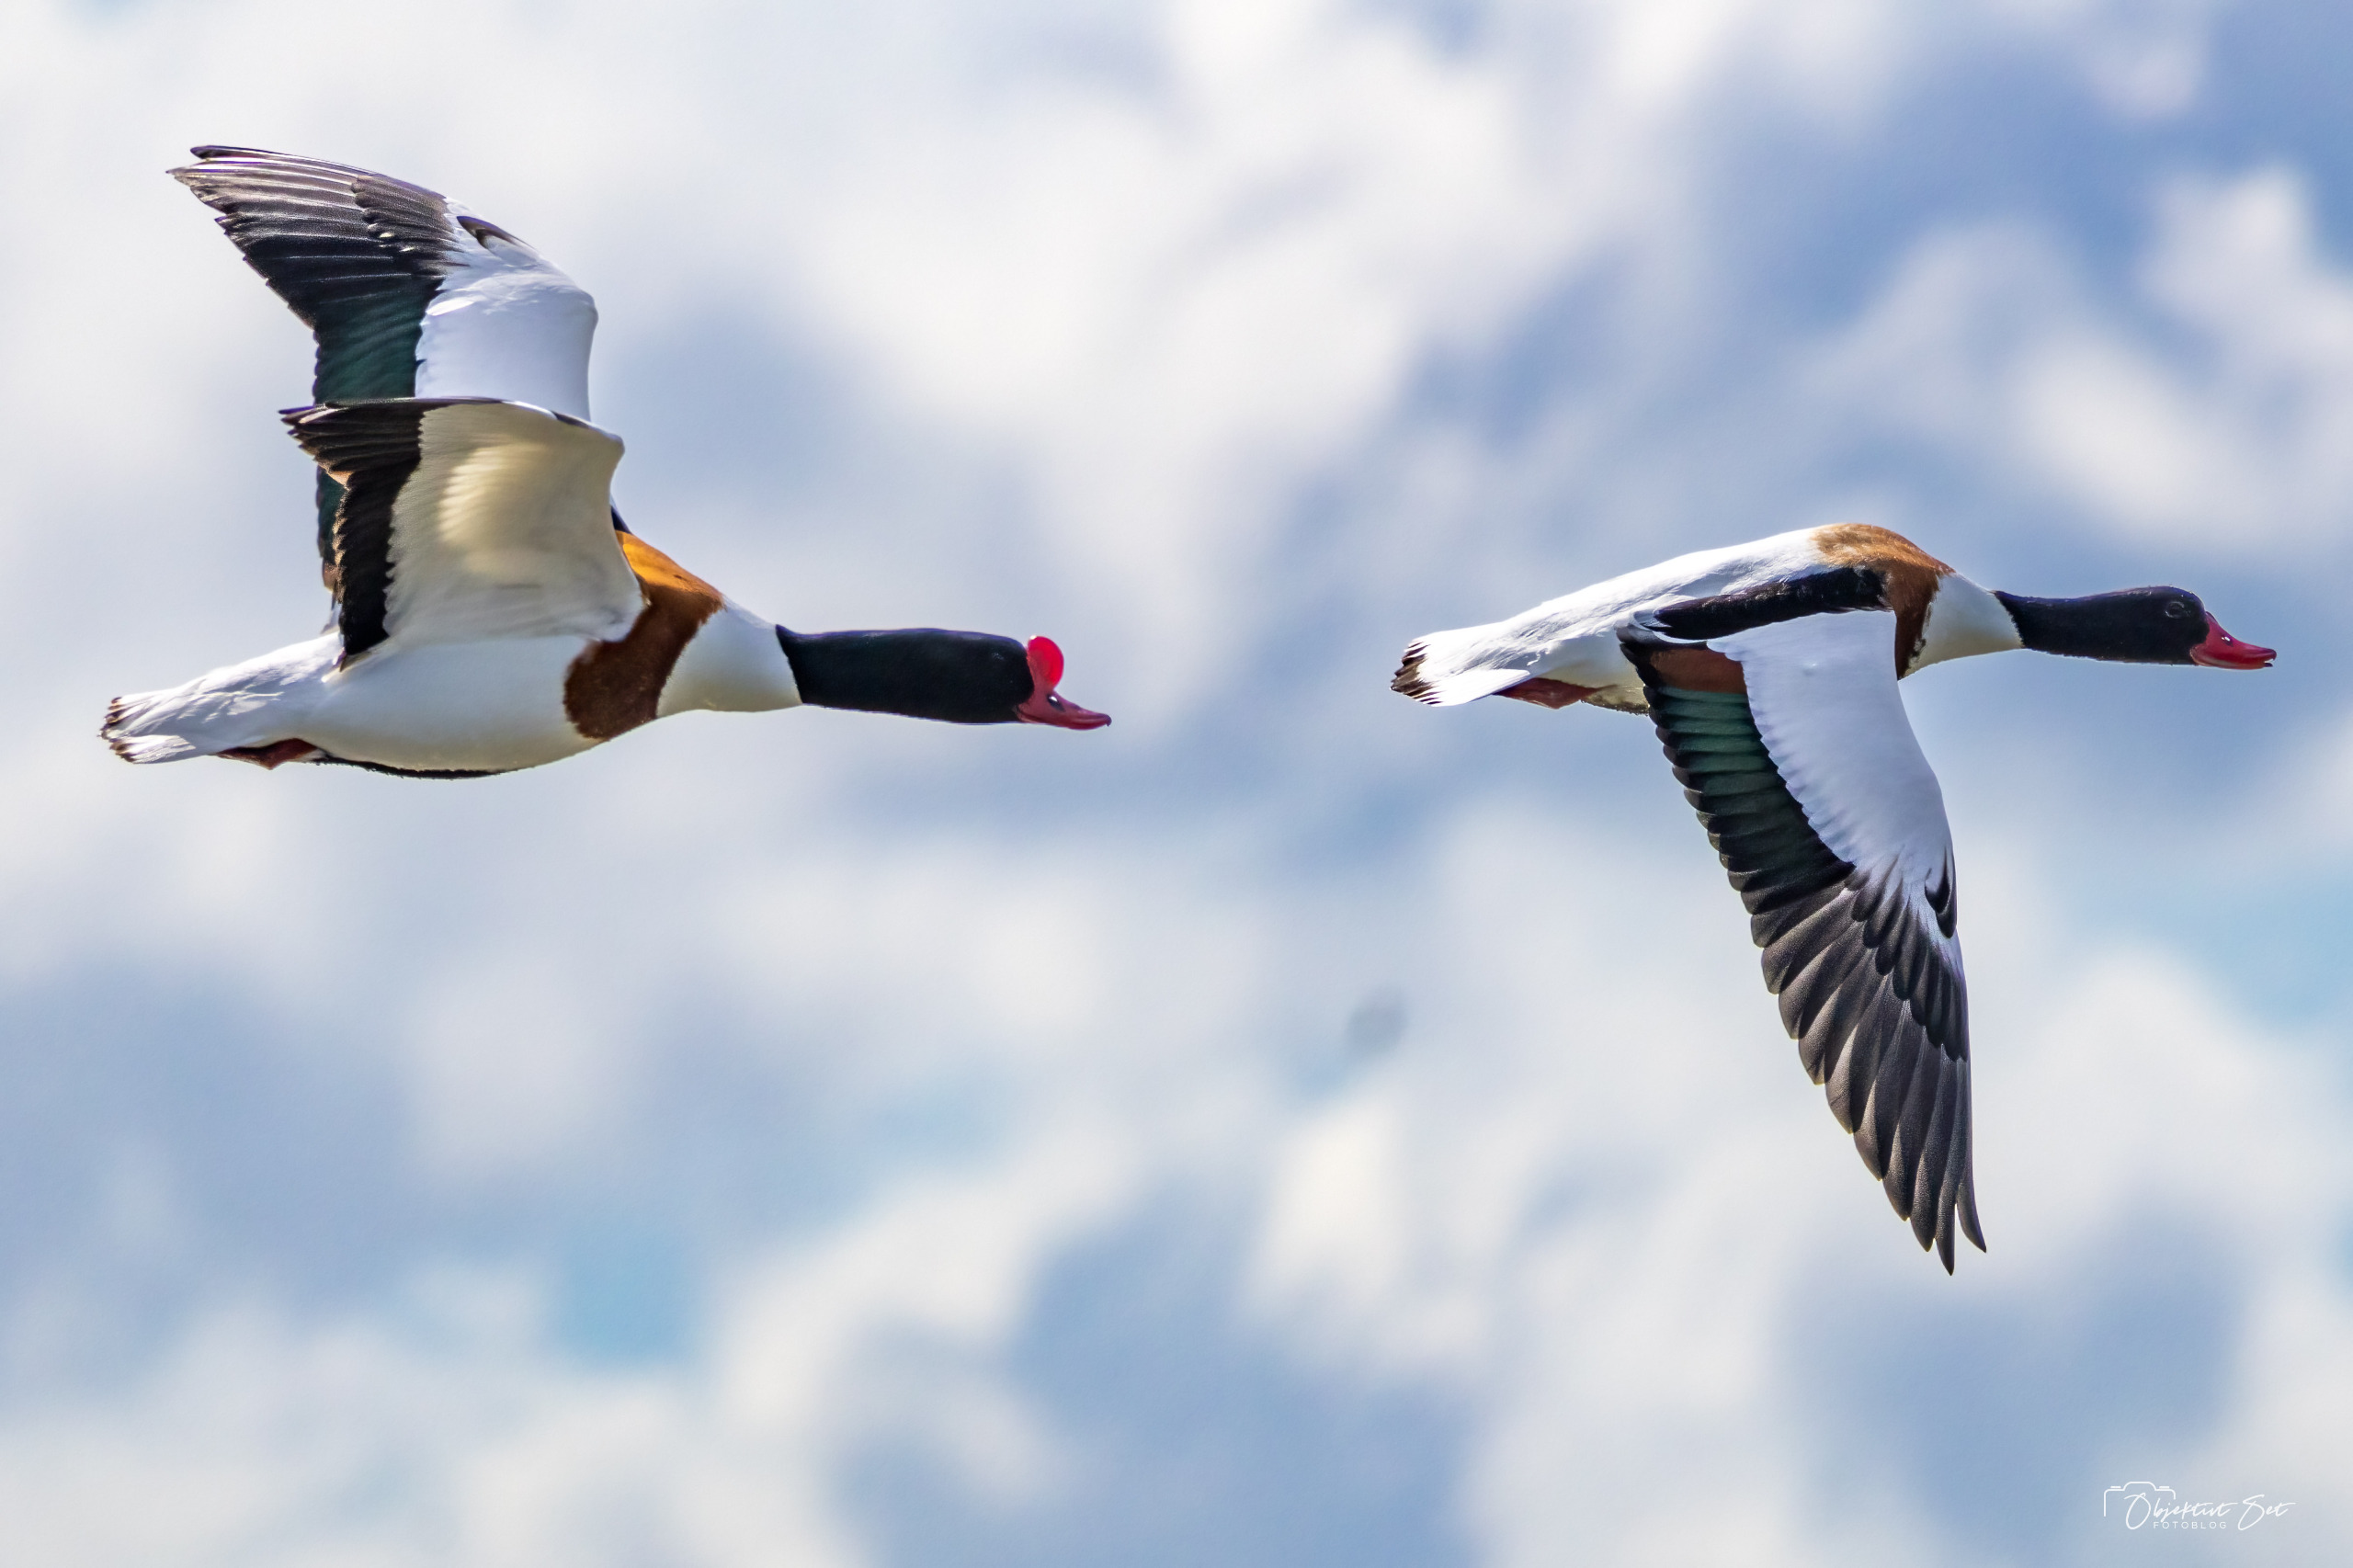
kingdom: Animalia
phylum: Chordata
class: Aves
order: Anseriformes
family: Anatidae
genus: Tadorna
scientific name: Tadorna tadorna
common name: Gravand
